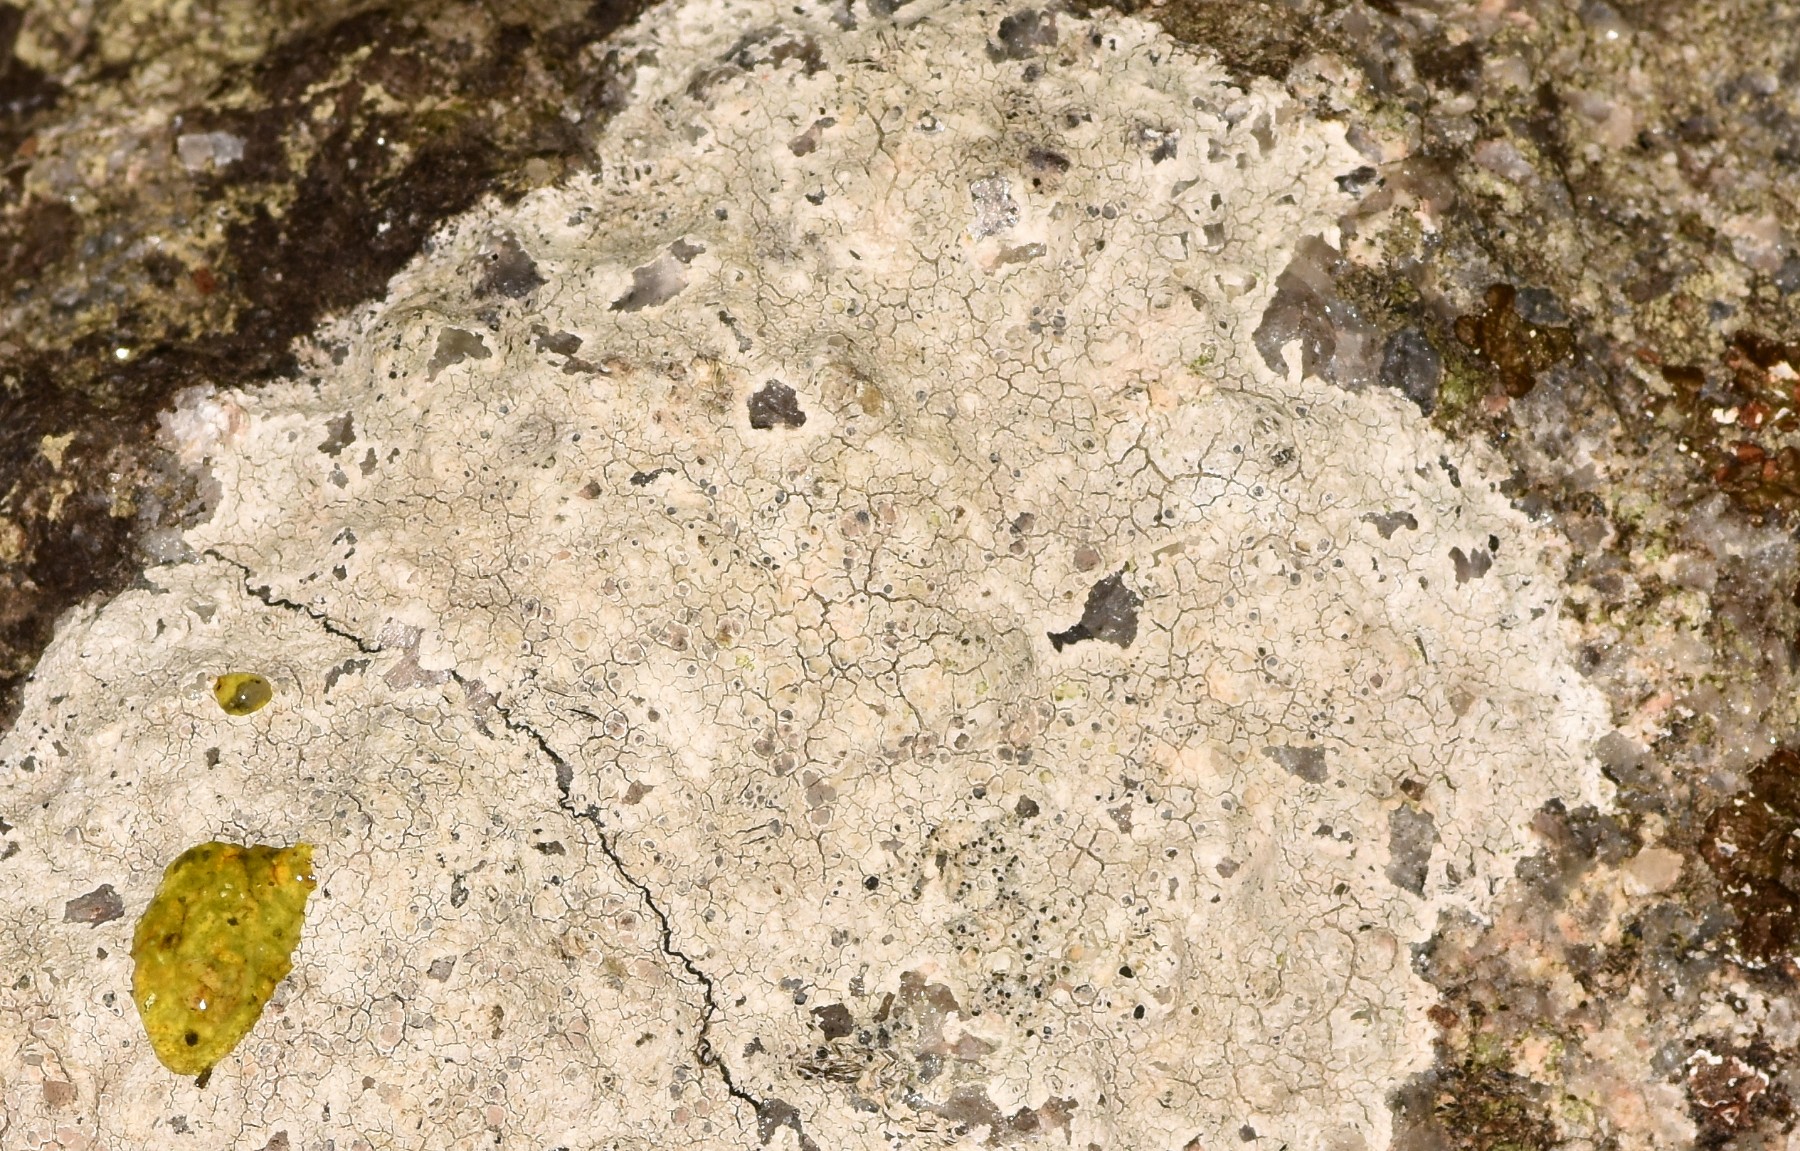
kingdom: Fungi
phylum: Ascomycota
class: Lecanoromycetes
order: Lecanorales
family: Lecanoraceae
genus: Glaucomaria
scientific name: Glaucomaria rupicola
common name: stengærde-kantskivelav
